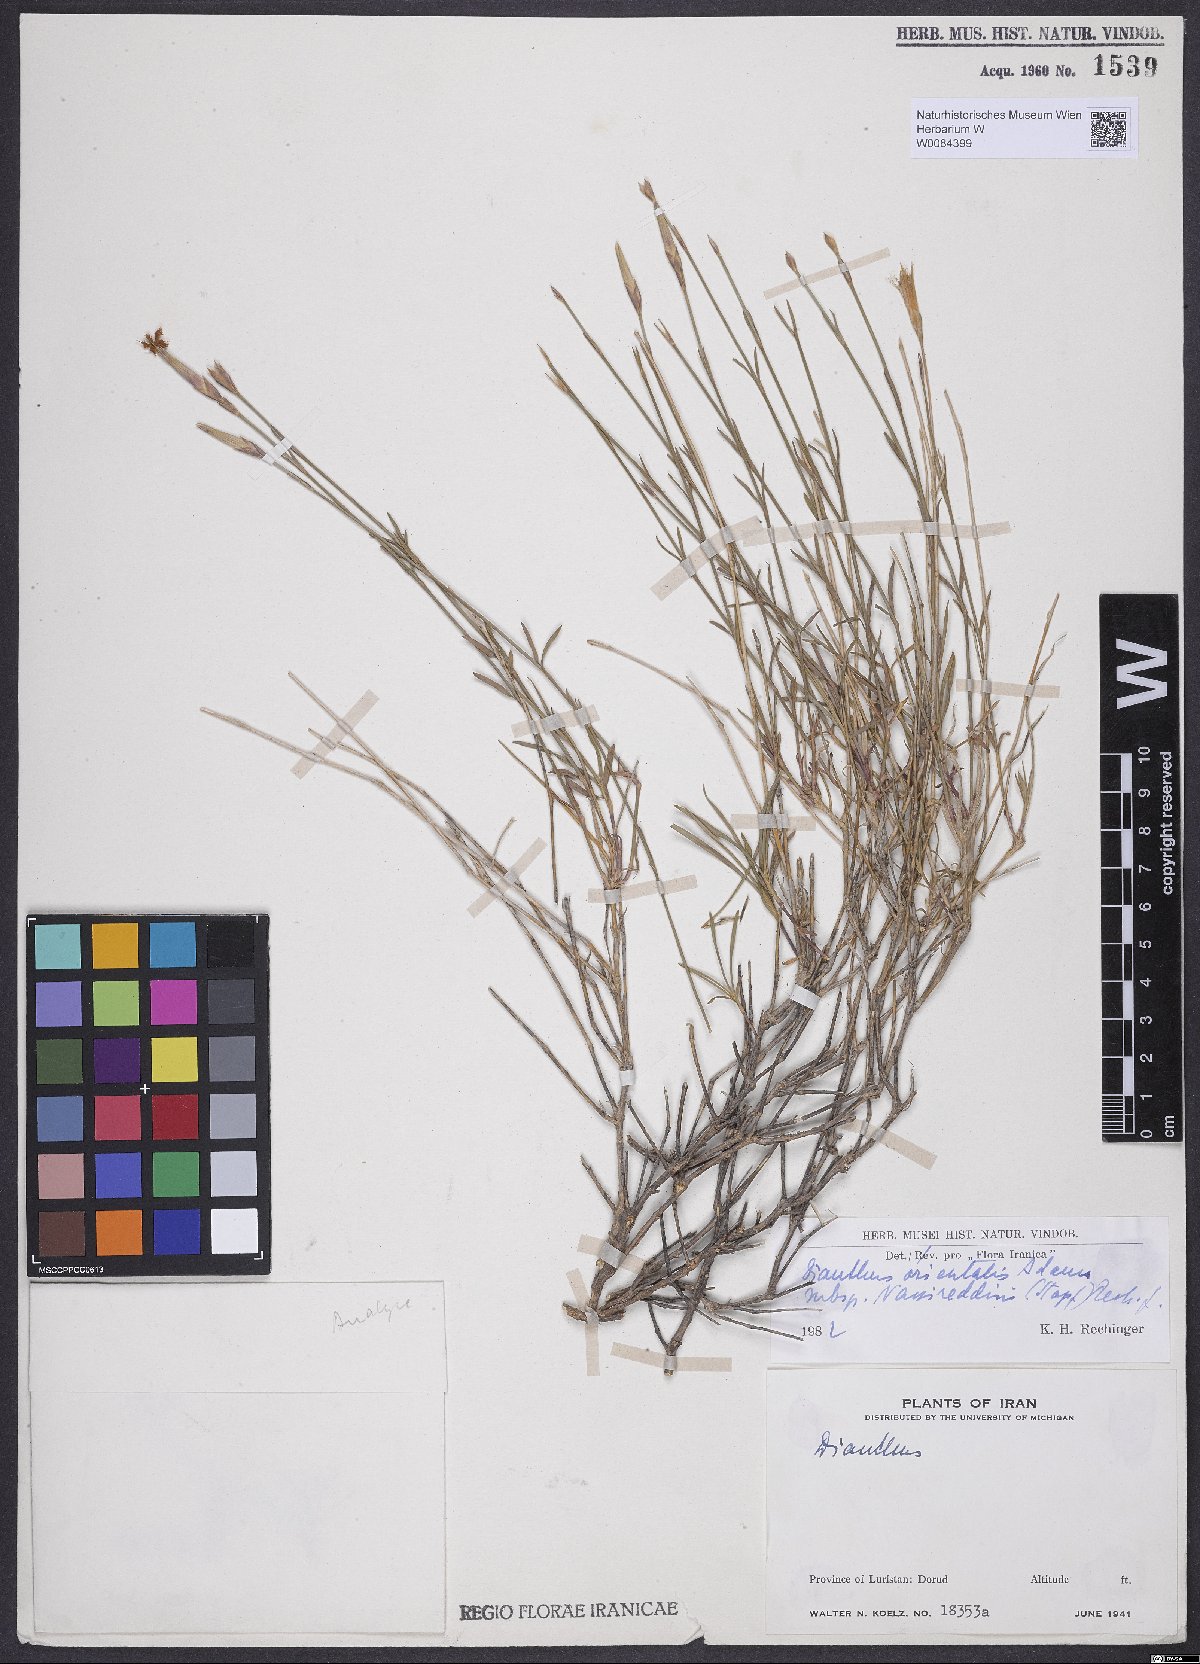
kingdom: Plantae
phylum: Tracheophyta
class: Magnoliopsida
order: Caryophyllales
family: Caryophyllaceae
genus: Dianthus
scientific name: Dianthus orientalis
